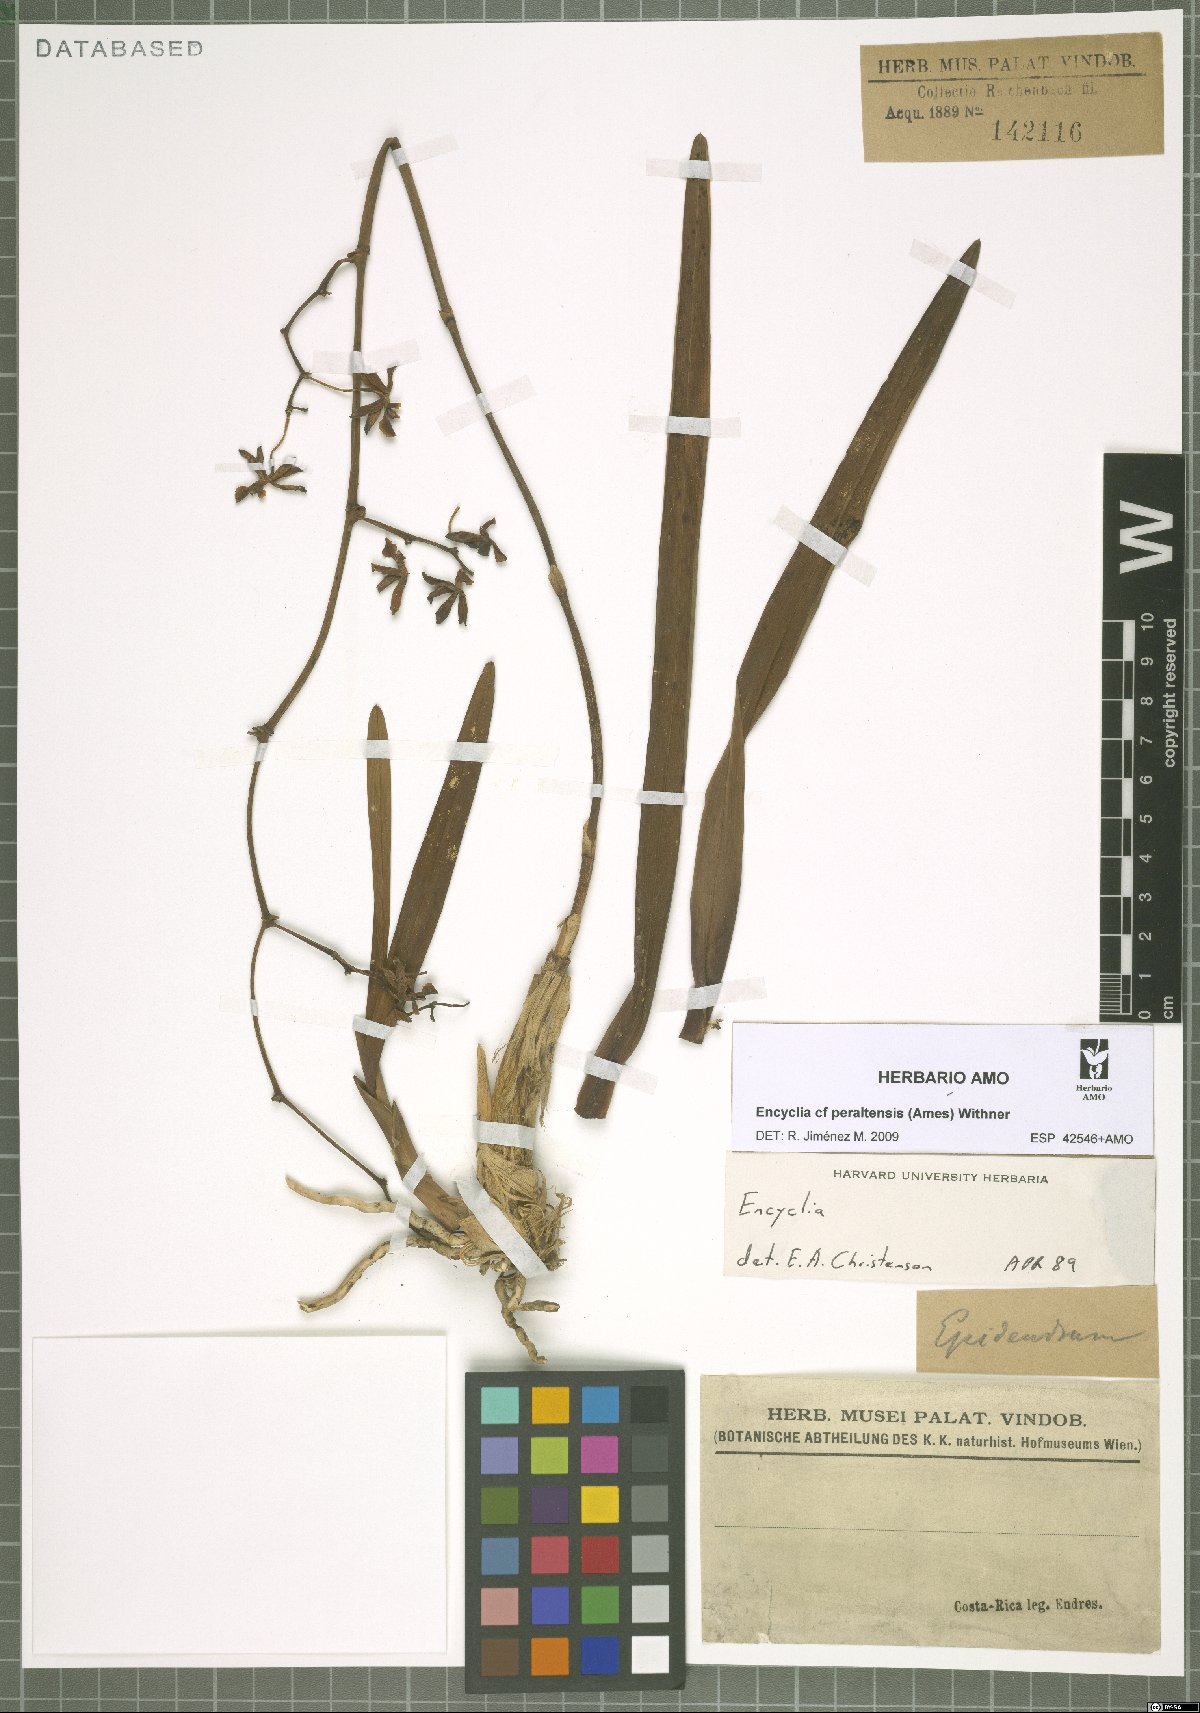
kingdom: Plantae
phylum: Tracheophyta
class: Liliopsida
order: Asparagales
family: Orchidaceae
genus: Encyclia
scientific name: Encyclia peraltensis
